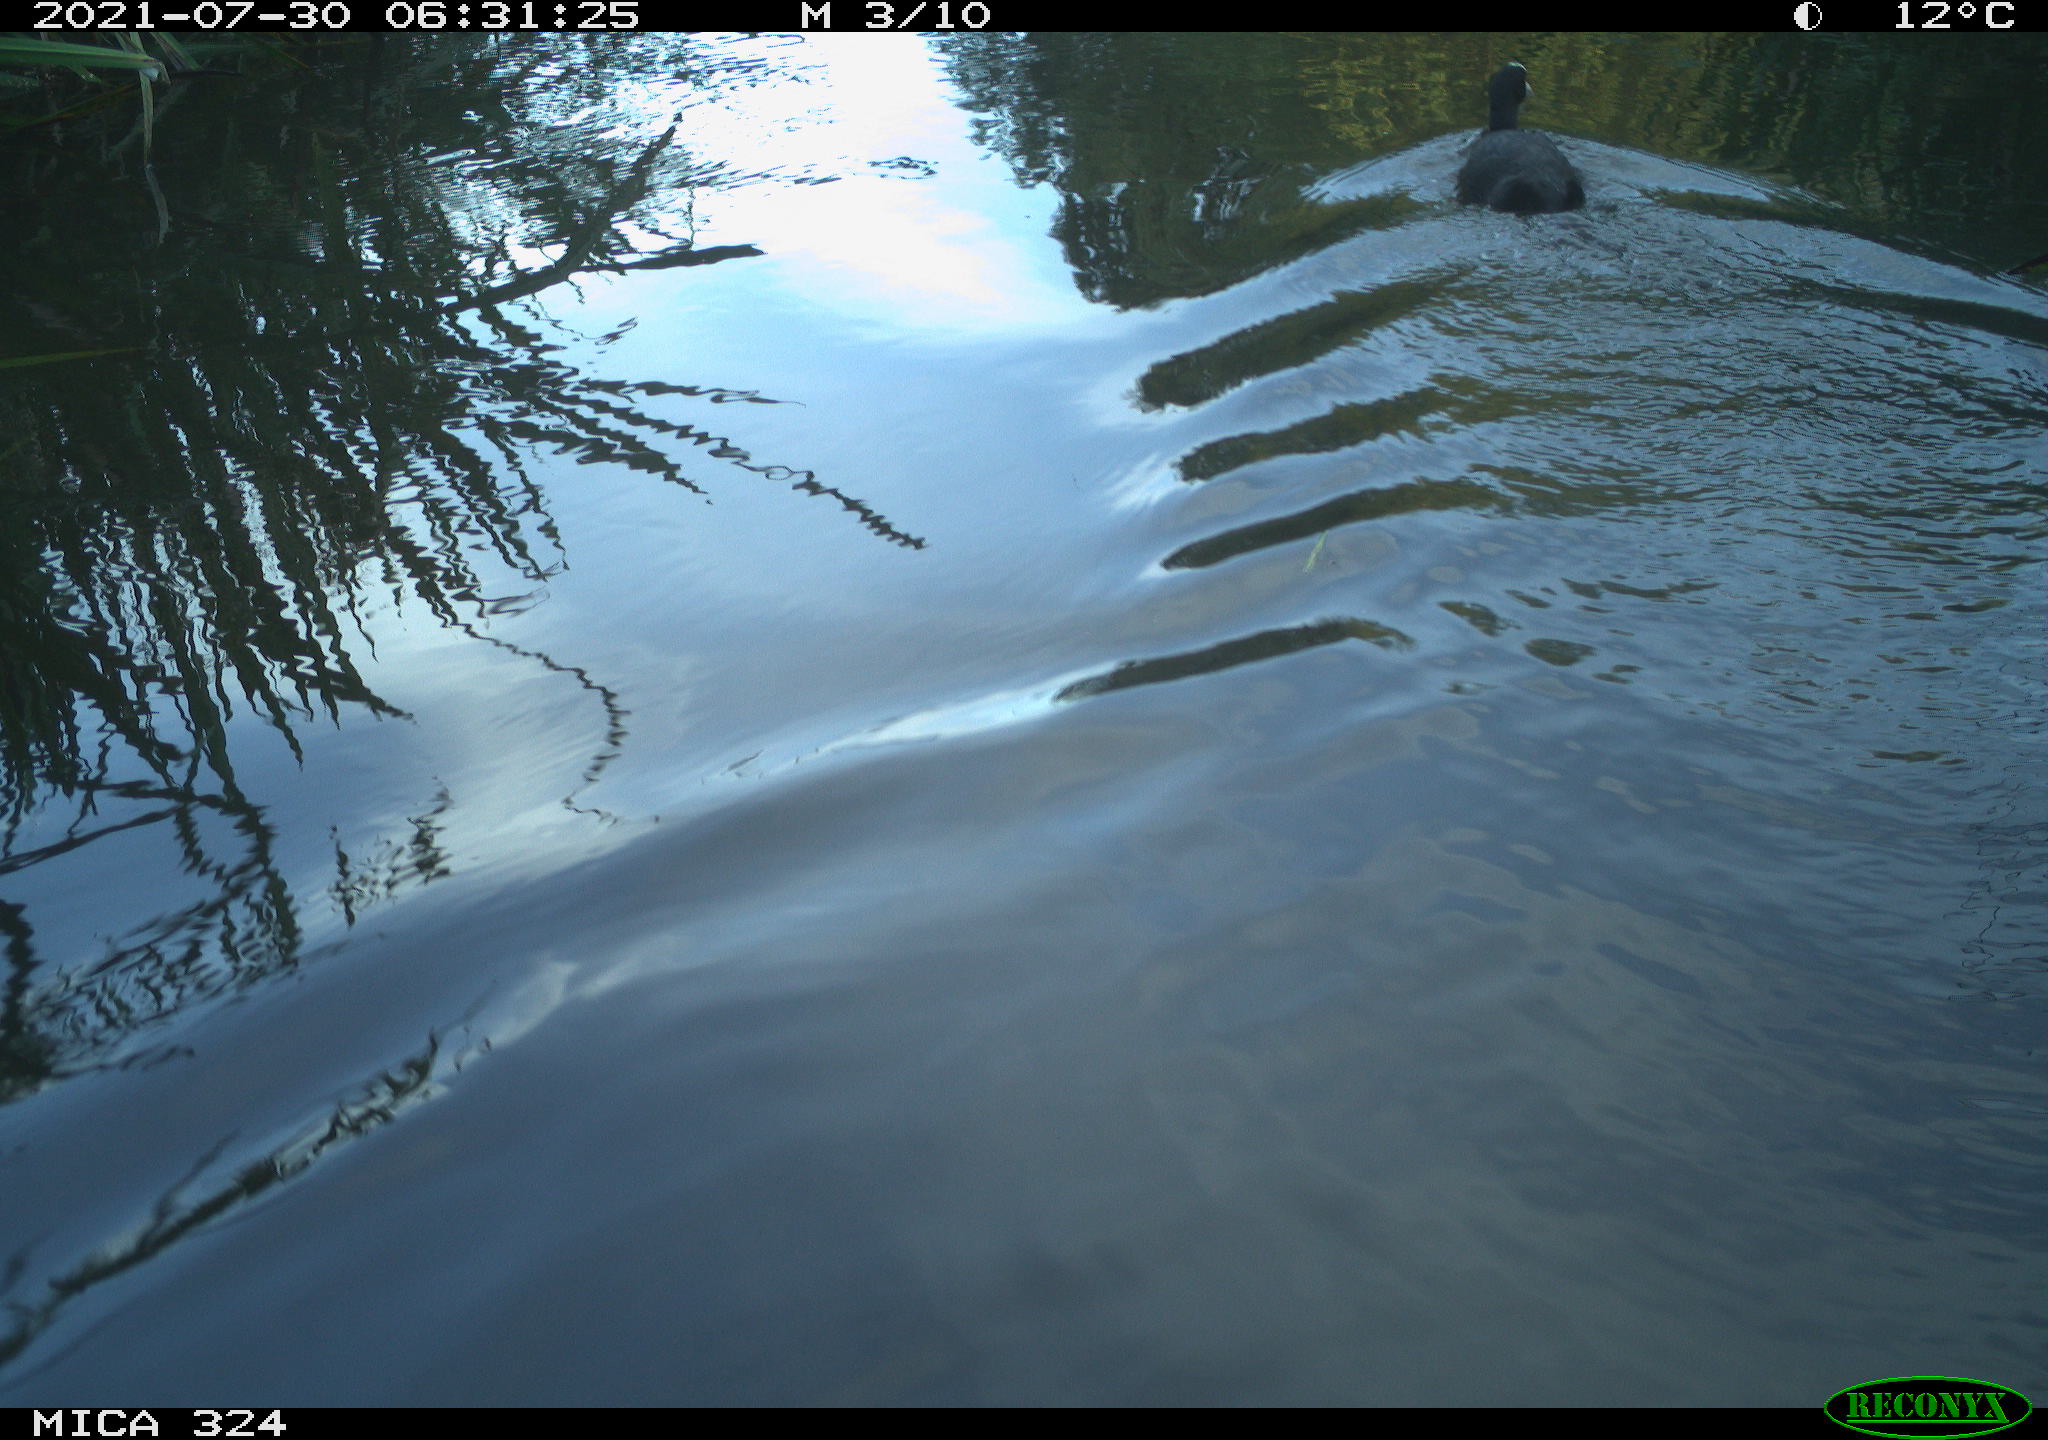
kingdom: Animalia
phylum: Chordata
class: Aves
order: Gruiformes
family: Rallidae
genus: Fulica
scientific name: Fulica atra
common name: Eurasian coot
